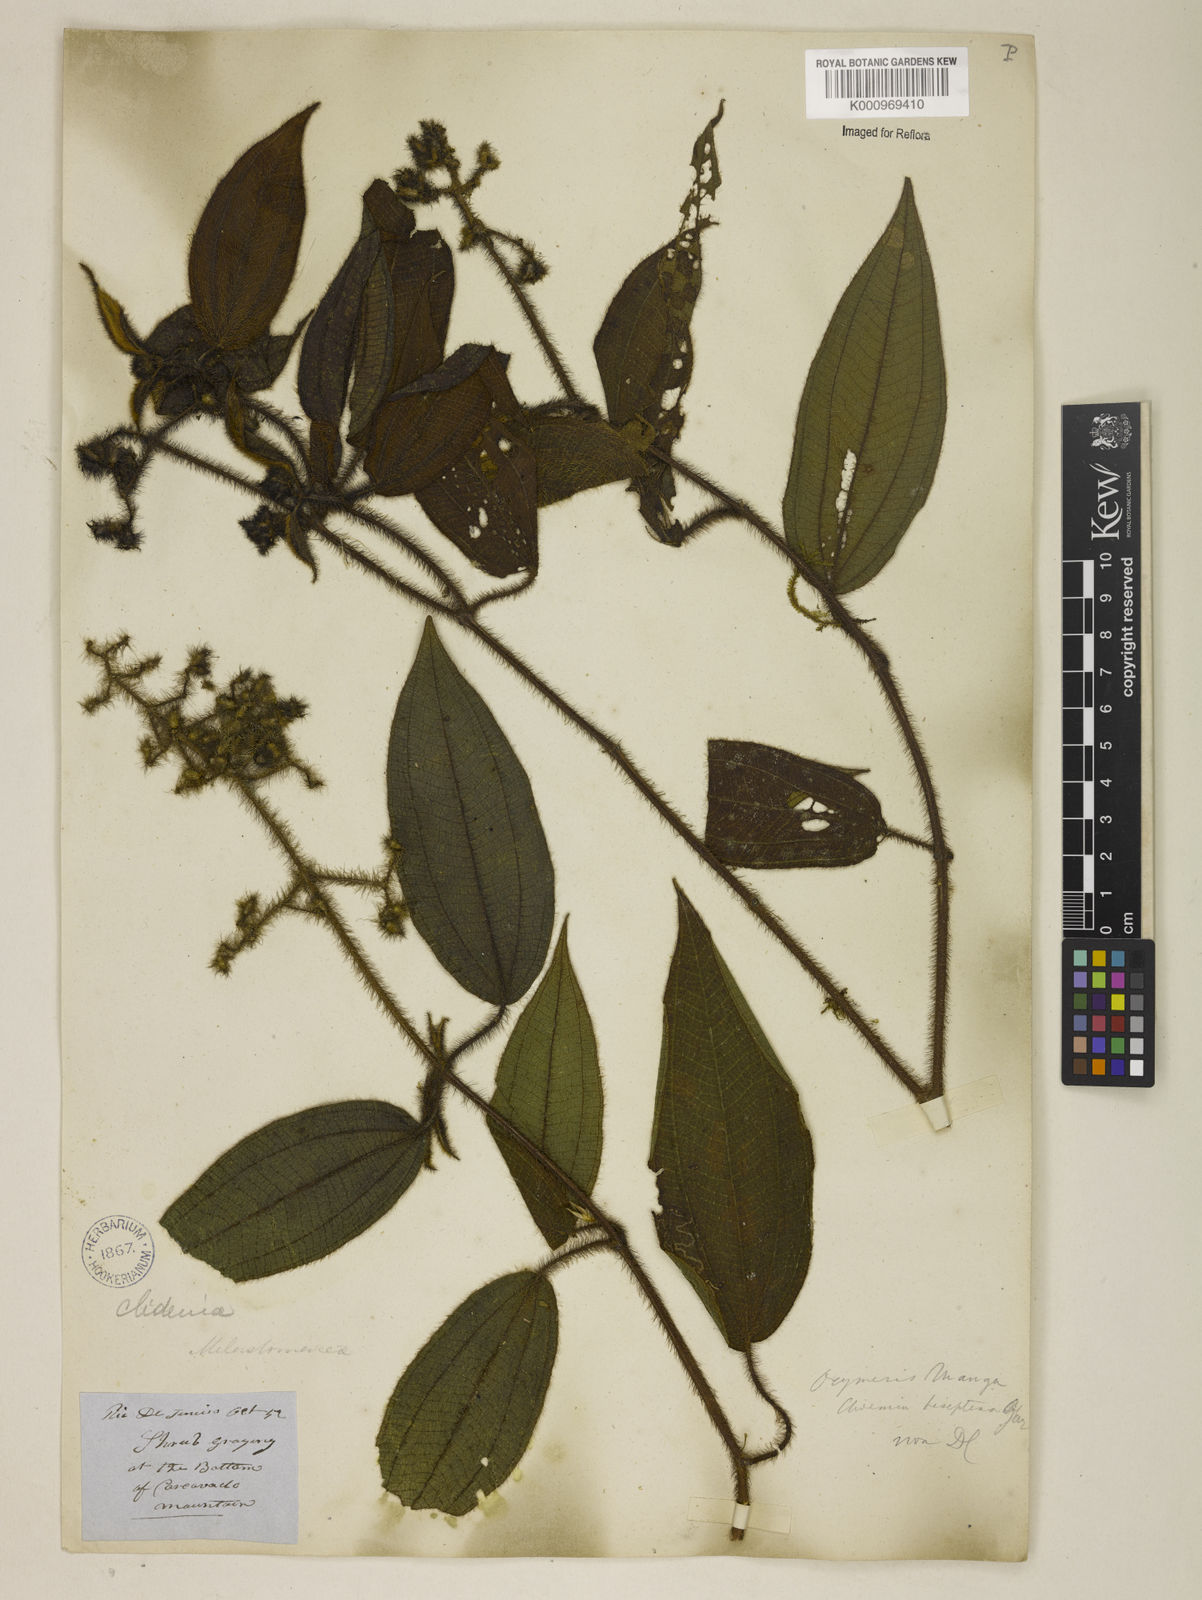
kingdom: Plantae
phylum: Tracheophyta
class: Magnoliopsida
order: Myrtales
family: Melastomataceae
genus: Miconia
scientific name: Miconia nianga
